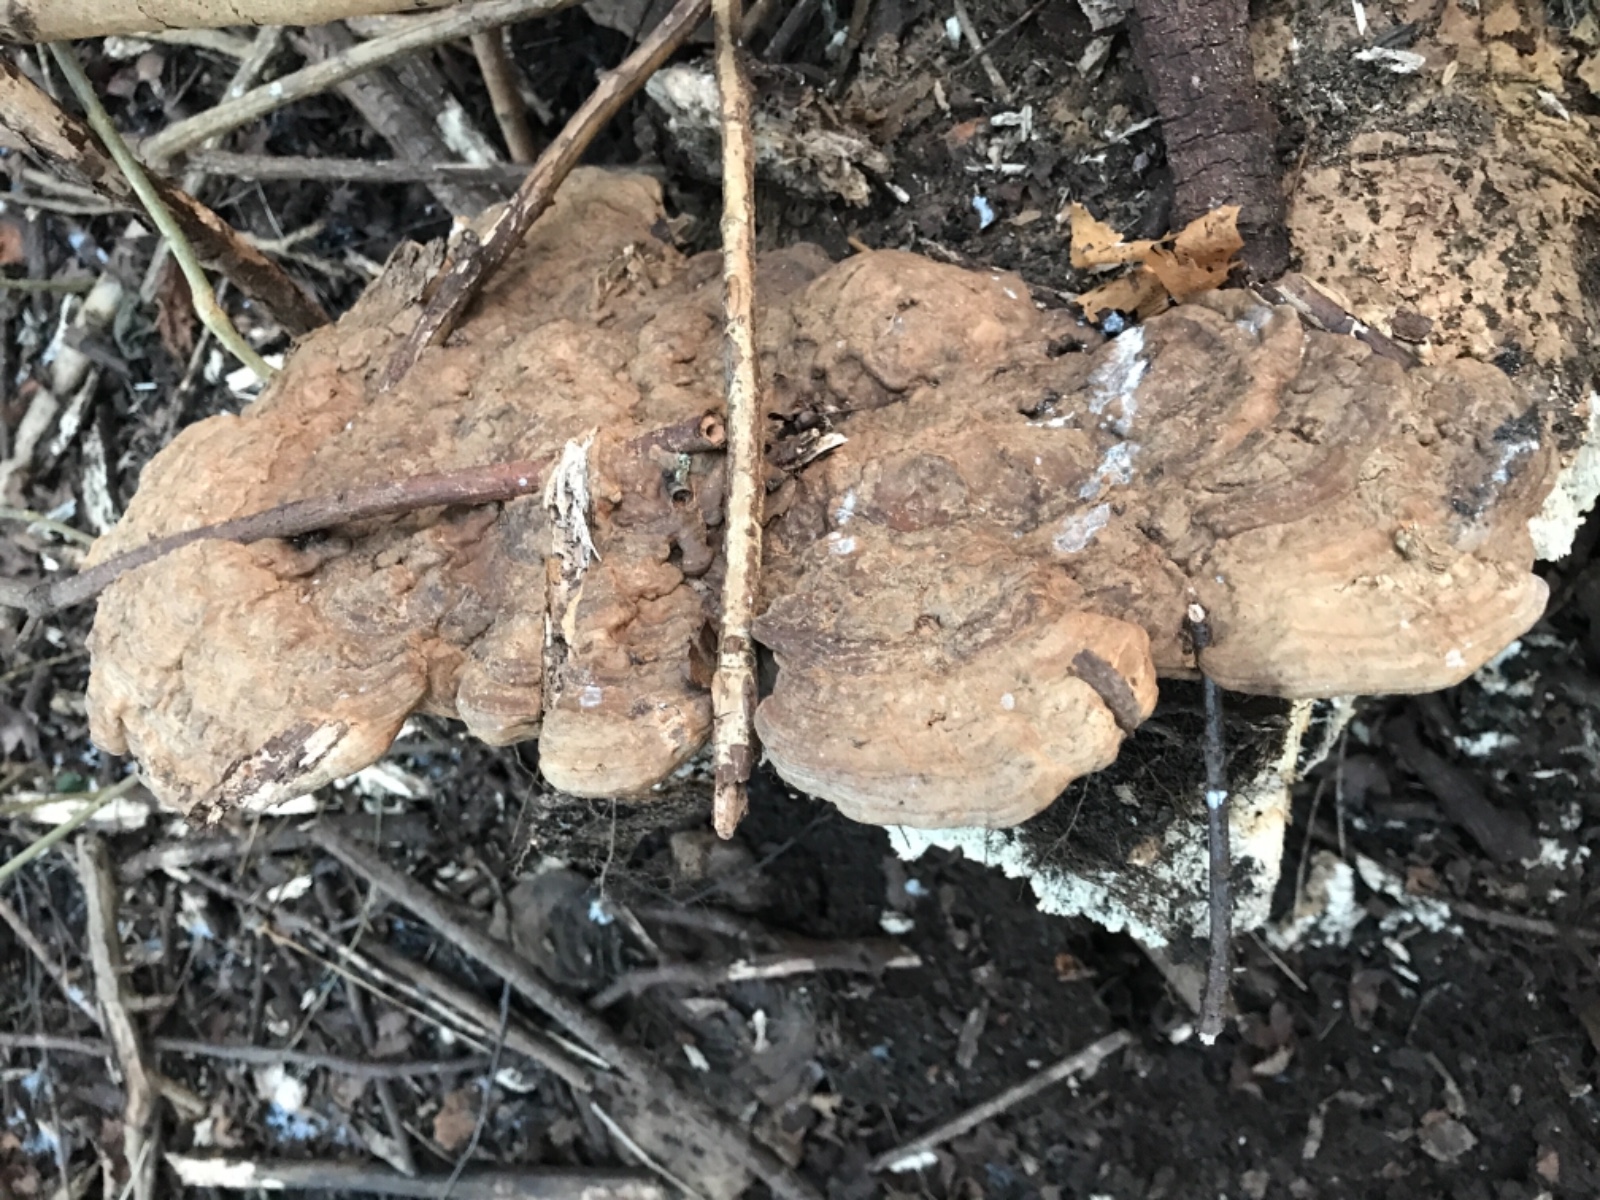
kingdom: Fungi
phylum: Basidiomycota
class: Agaricomycetes
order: Polyporales
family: Polyporaceae
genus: Ganoderma
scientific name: Ganoderma applanatum
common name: flad lakporesvamp
